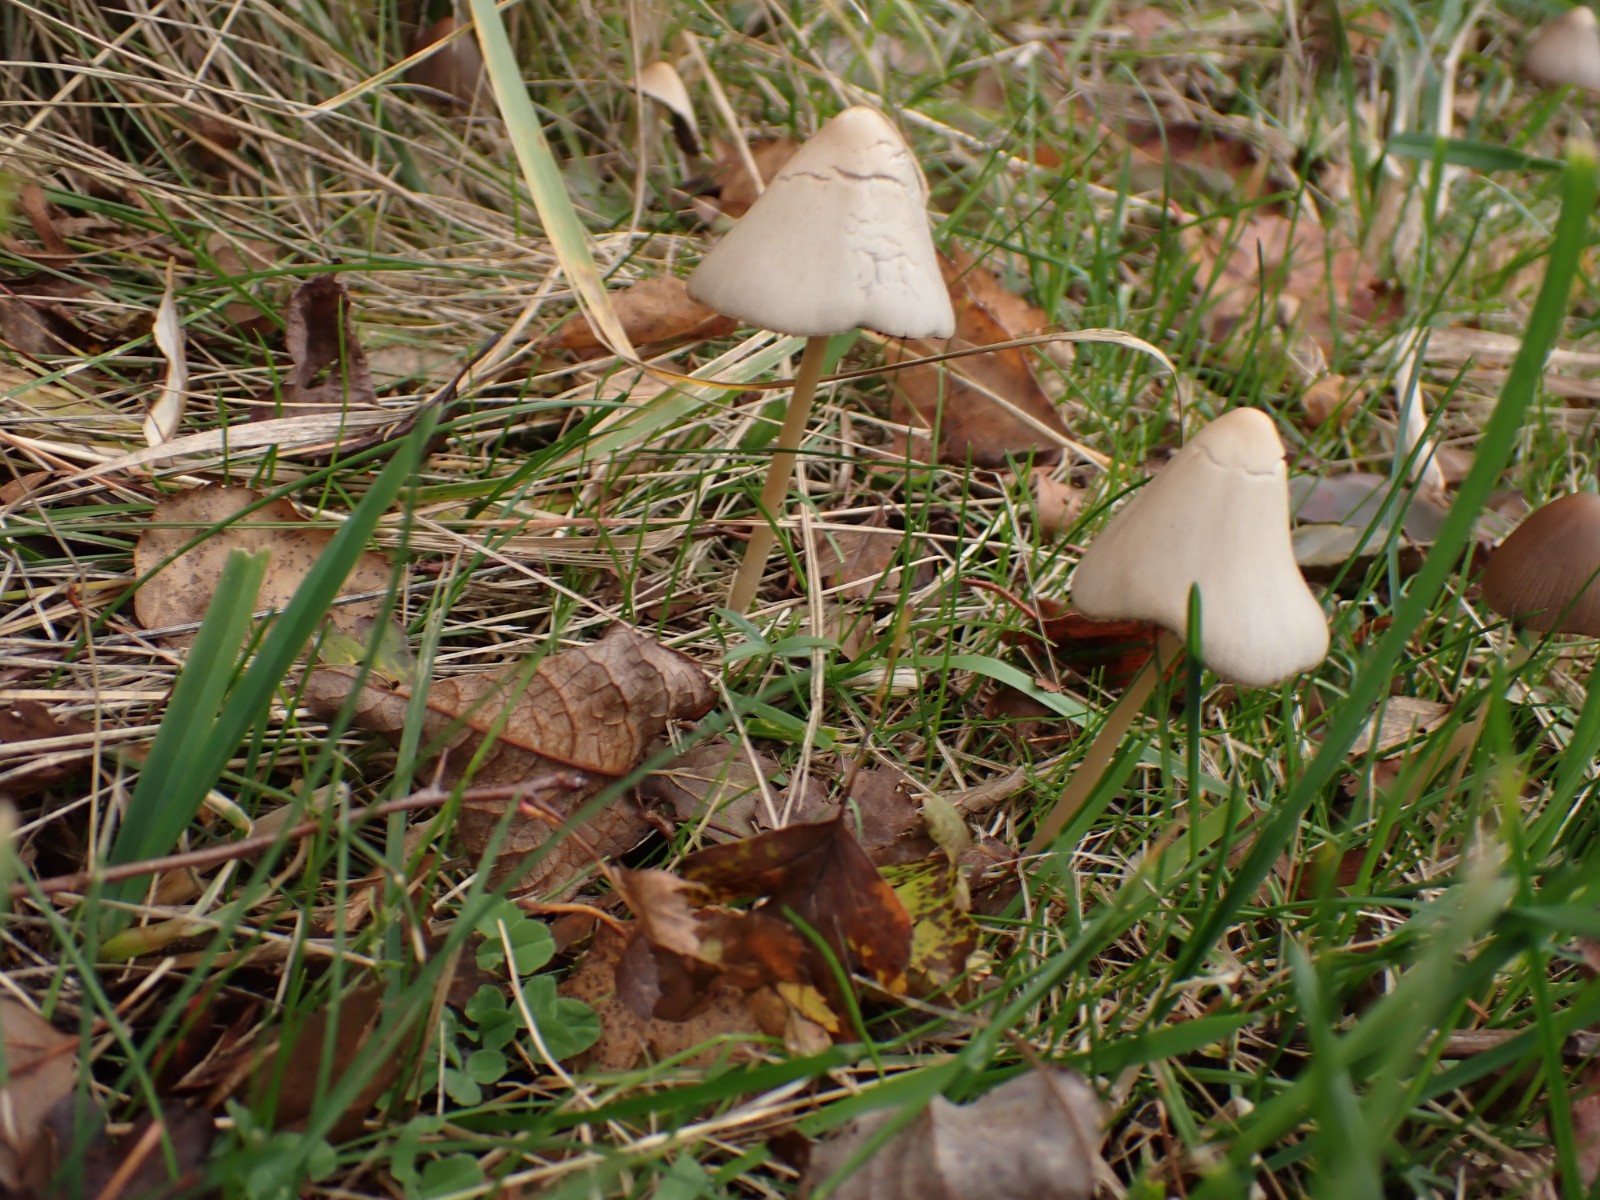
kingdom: Fungi
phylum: Basidiomycota
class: Agaricomycetes
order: Agaricales
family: Psathyrellaceae
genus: Parasola
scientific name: Parasola conopilea
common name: kegle-hjulhat
